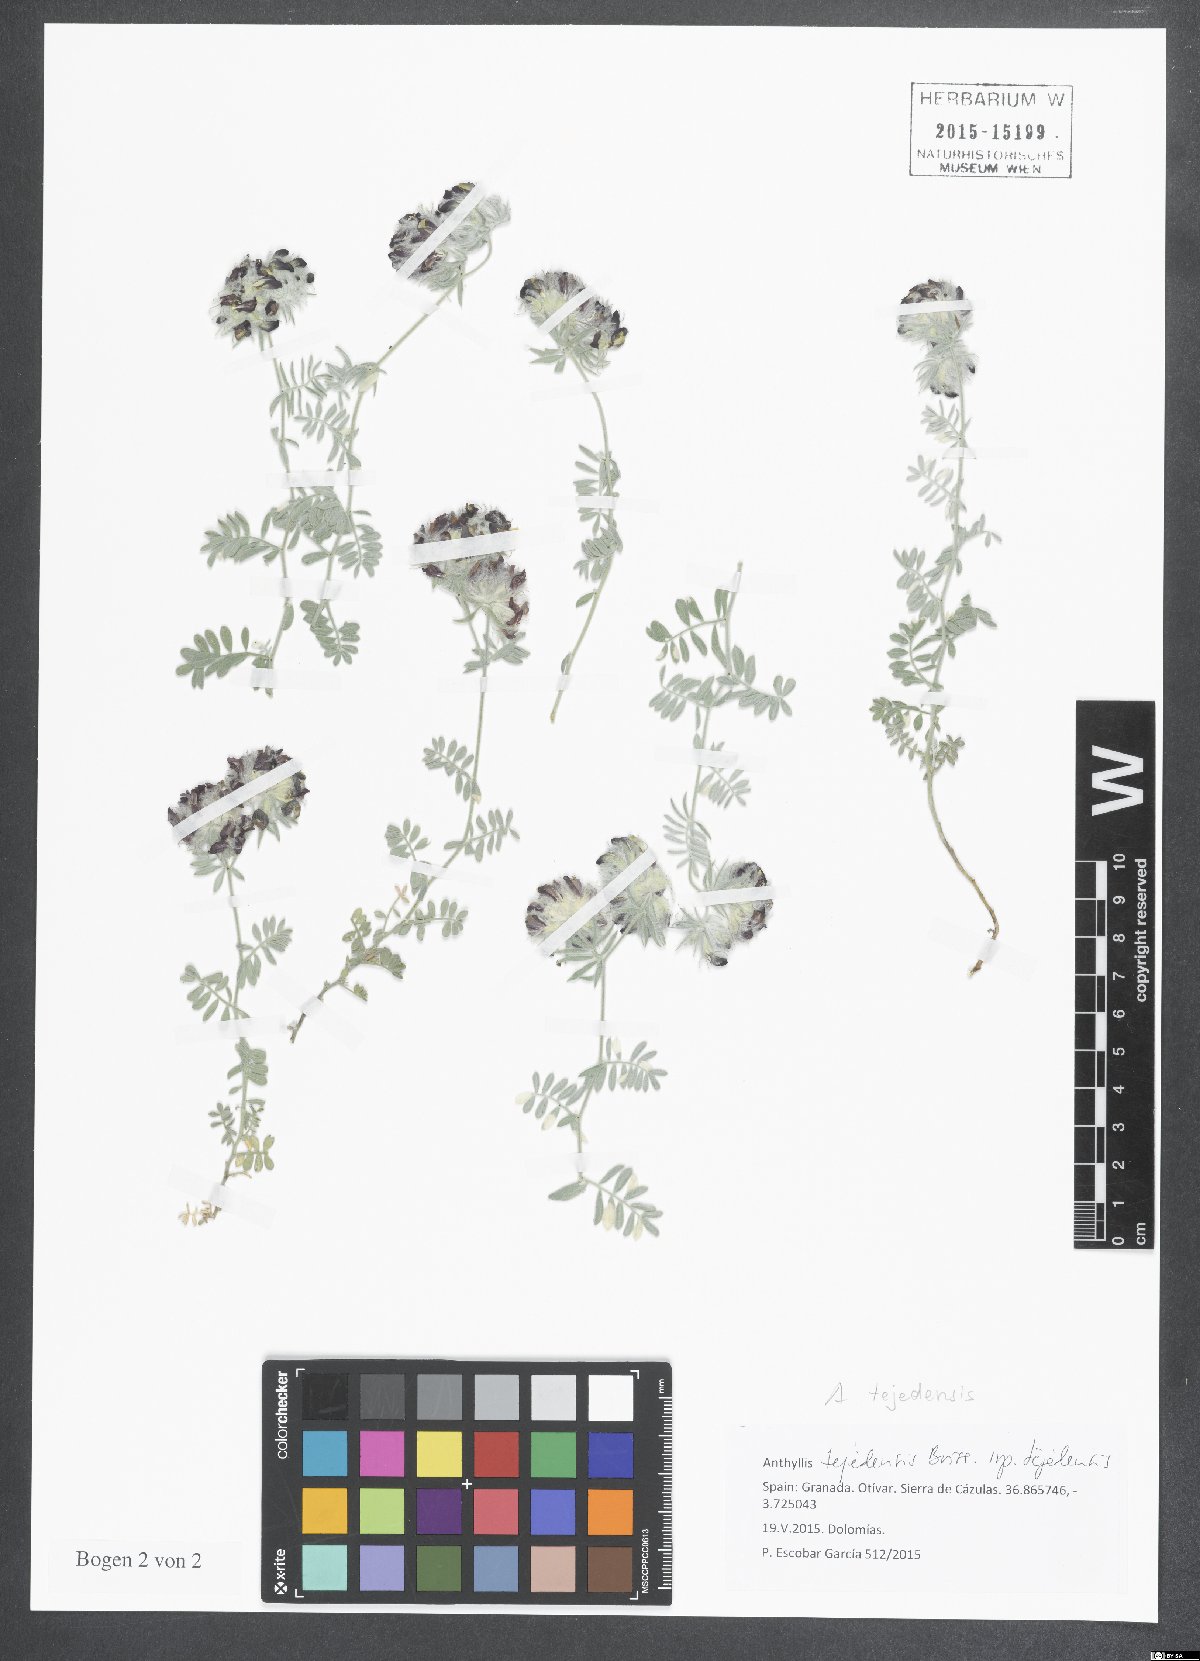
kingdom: Plantae
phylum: Tracheophyta
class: Magnoliopsida
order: Fabales
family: Fabaceae
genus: Anthyllis
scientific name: Anthyllis tejedensis
